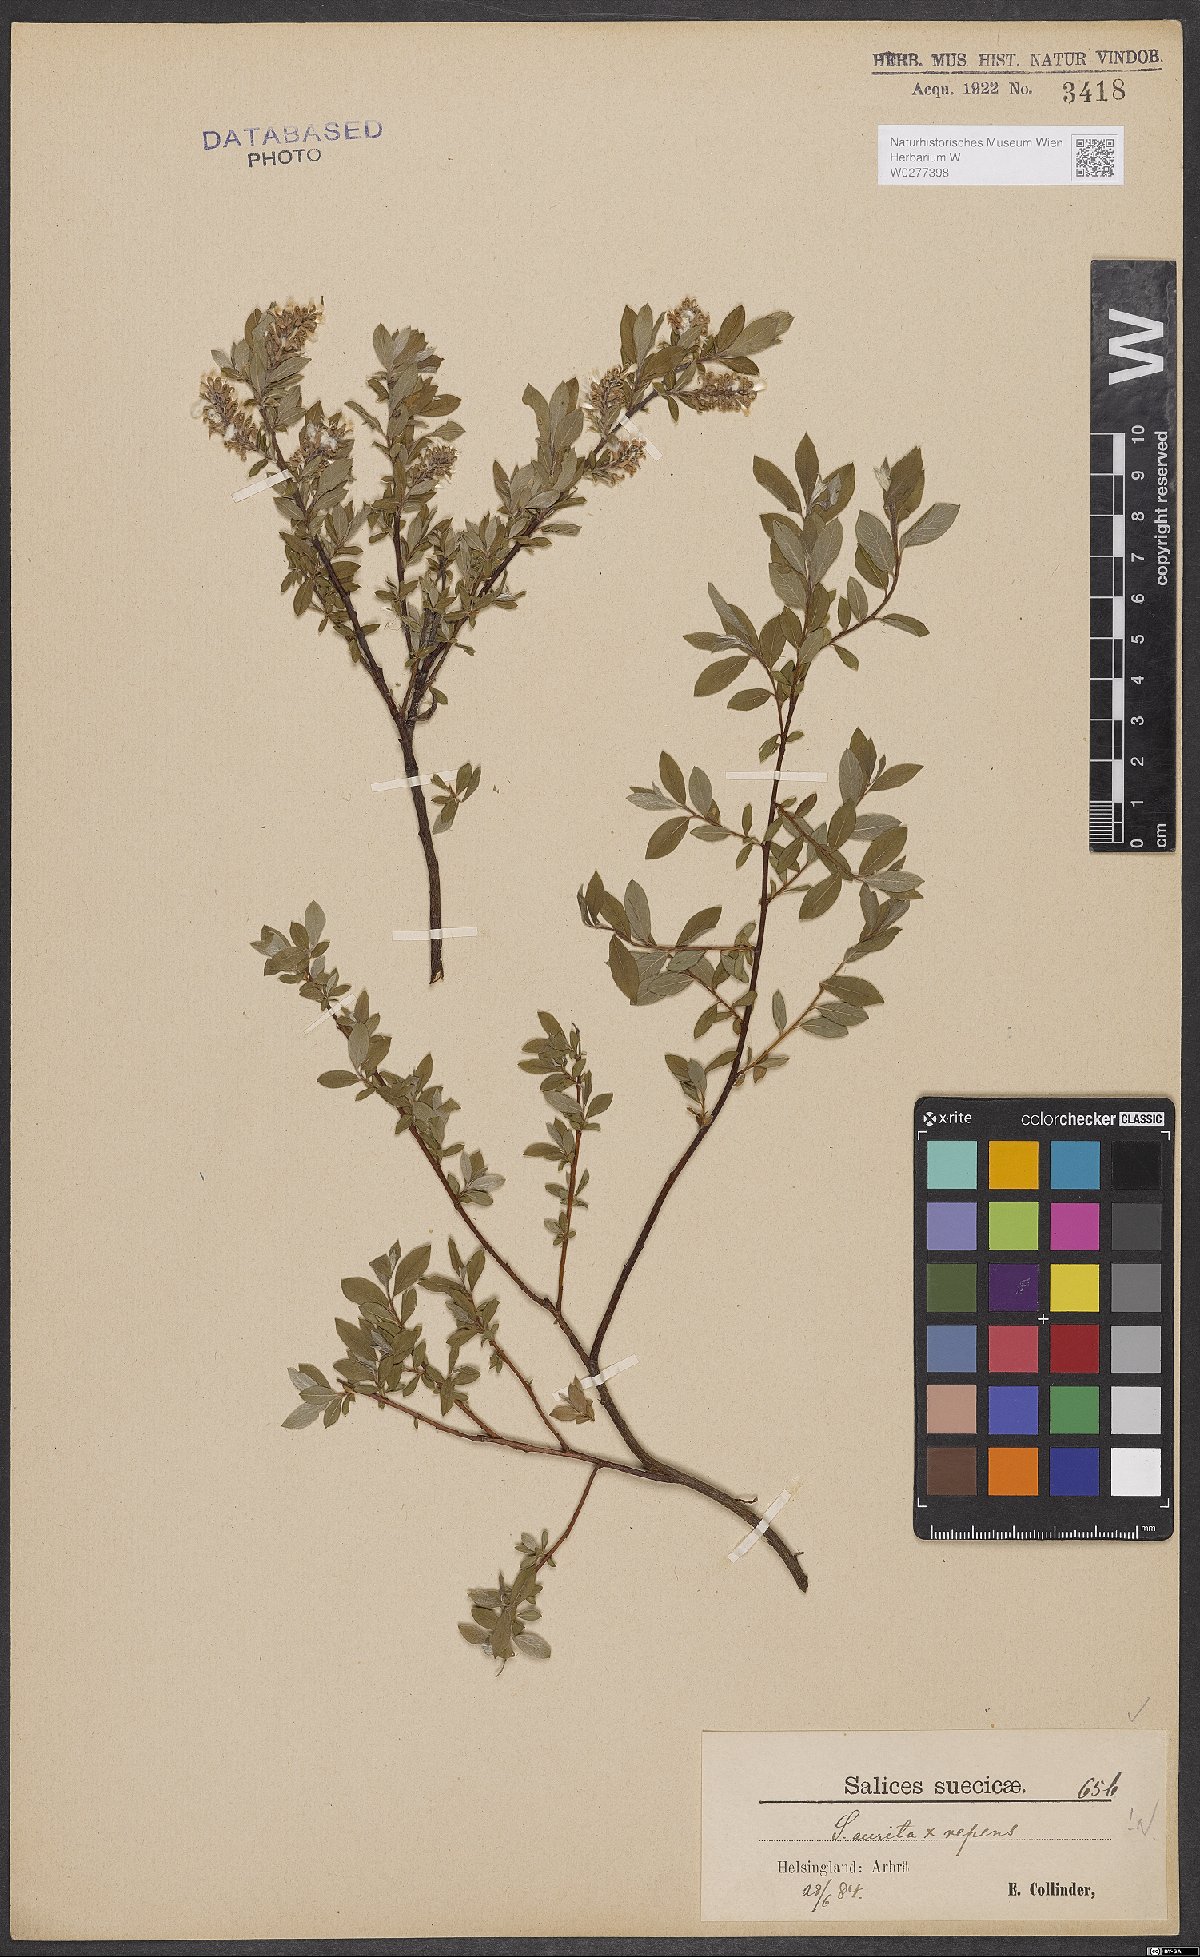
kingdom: Plantae
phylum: Tracheophyta
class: Magnoliopsida
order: Malpighiales
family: Salicaceae
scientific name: Salicaceae
